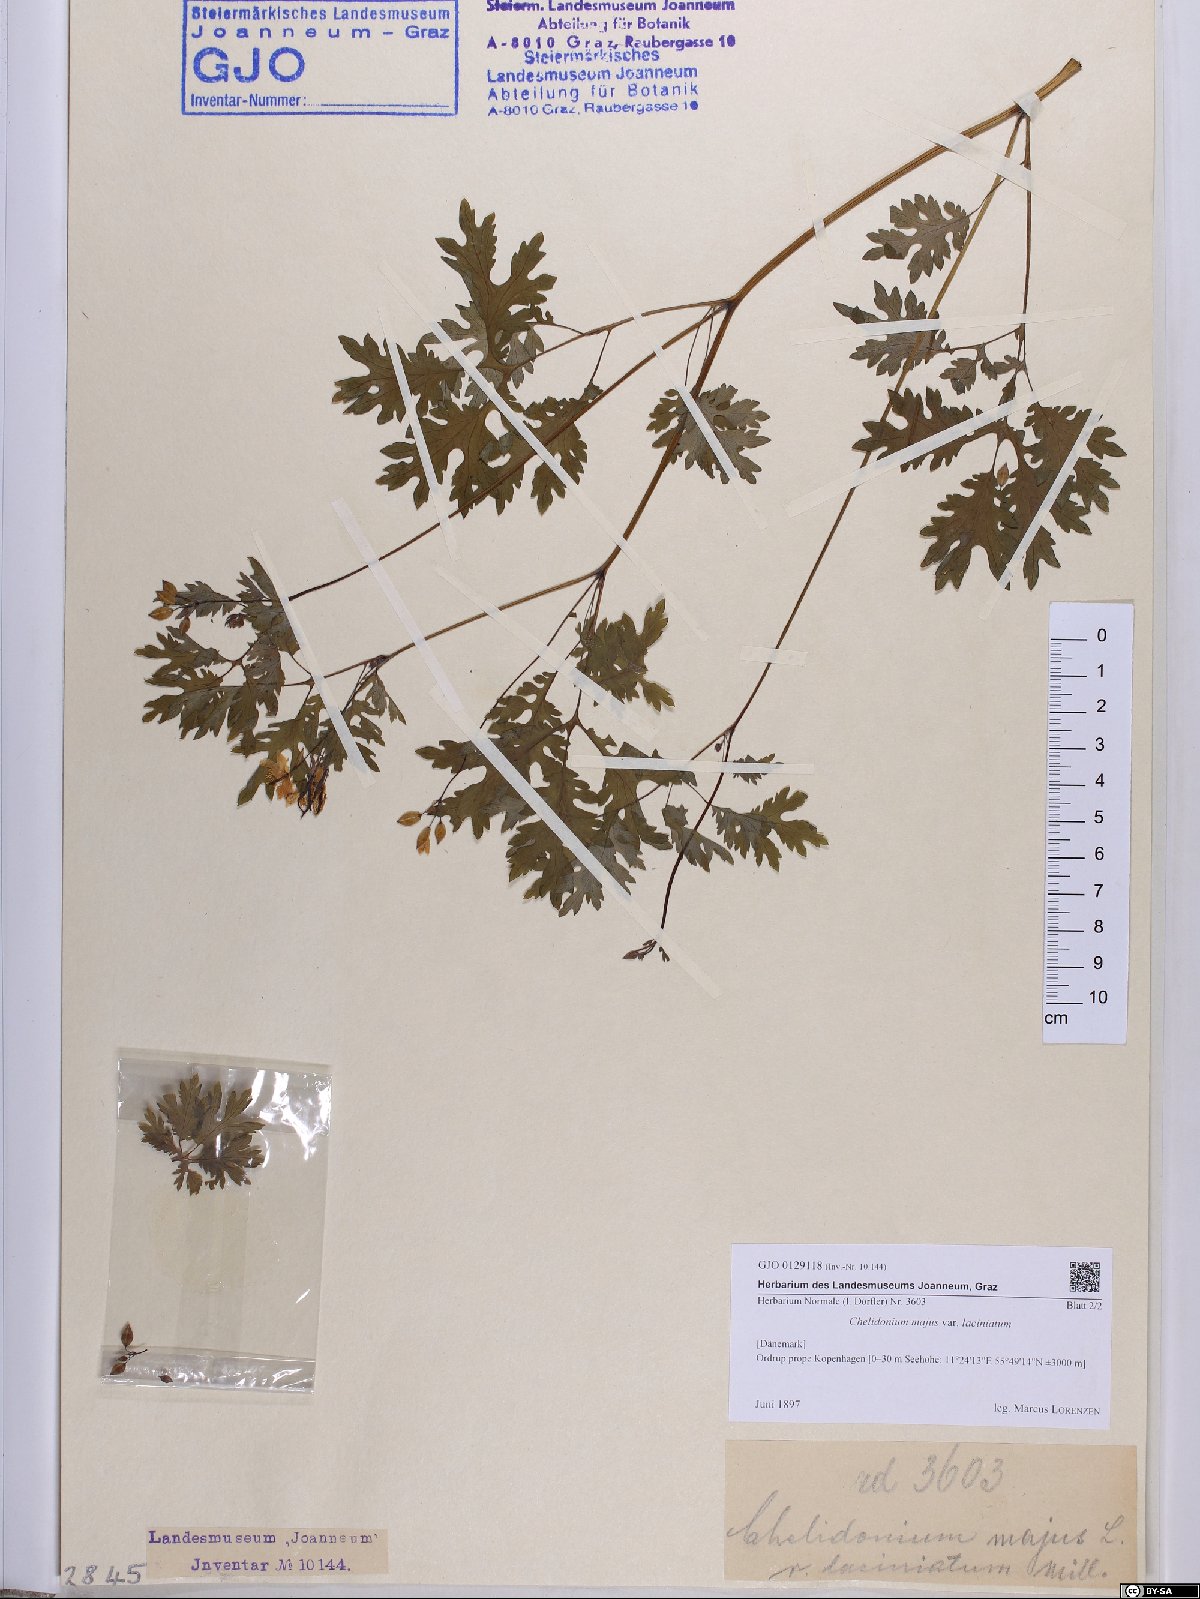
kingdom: Plantae
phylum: Tracheophyta
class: Magnoliopsida
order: Ranunculales
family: Papaveraceae
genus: Chelidonium
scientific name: Chelidonium majus
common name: Greater celandine
